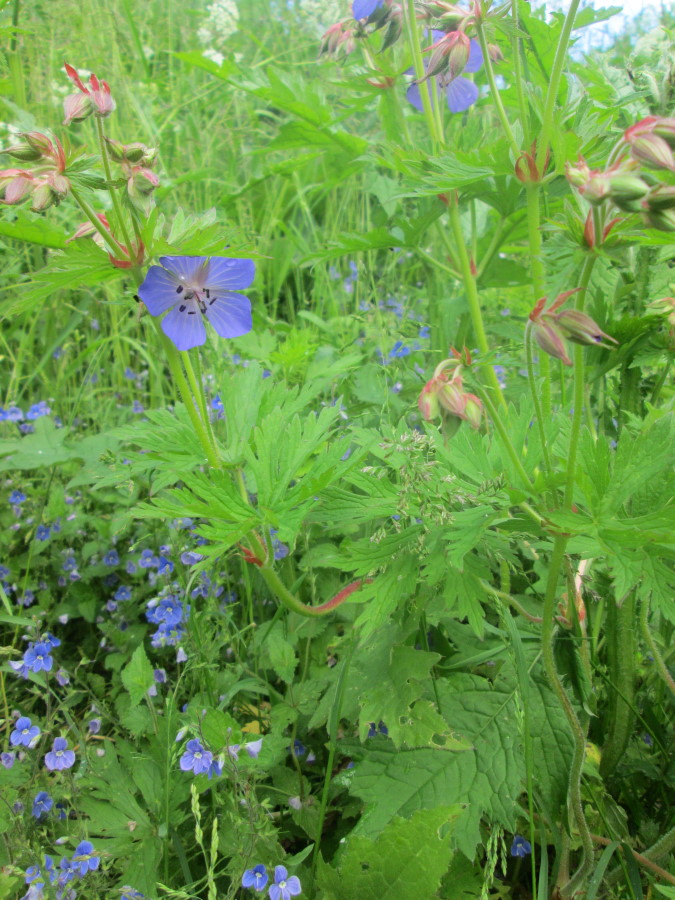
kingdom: Plantae
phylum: Tracheophyta
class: Magnoliopsida
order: Geraniales
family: Geraniaceae
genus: Geranium
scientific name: Geranium pratense
